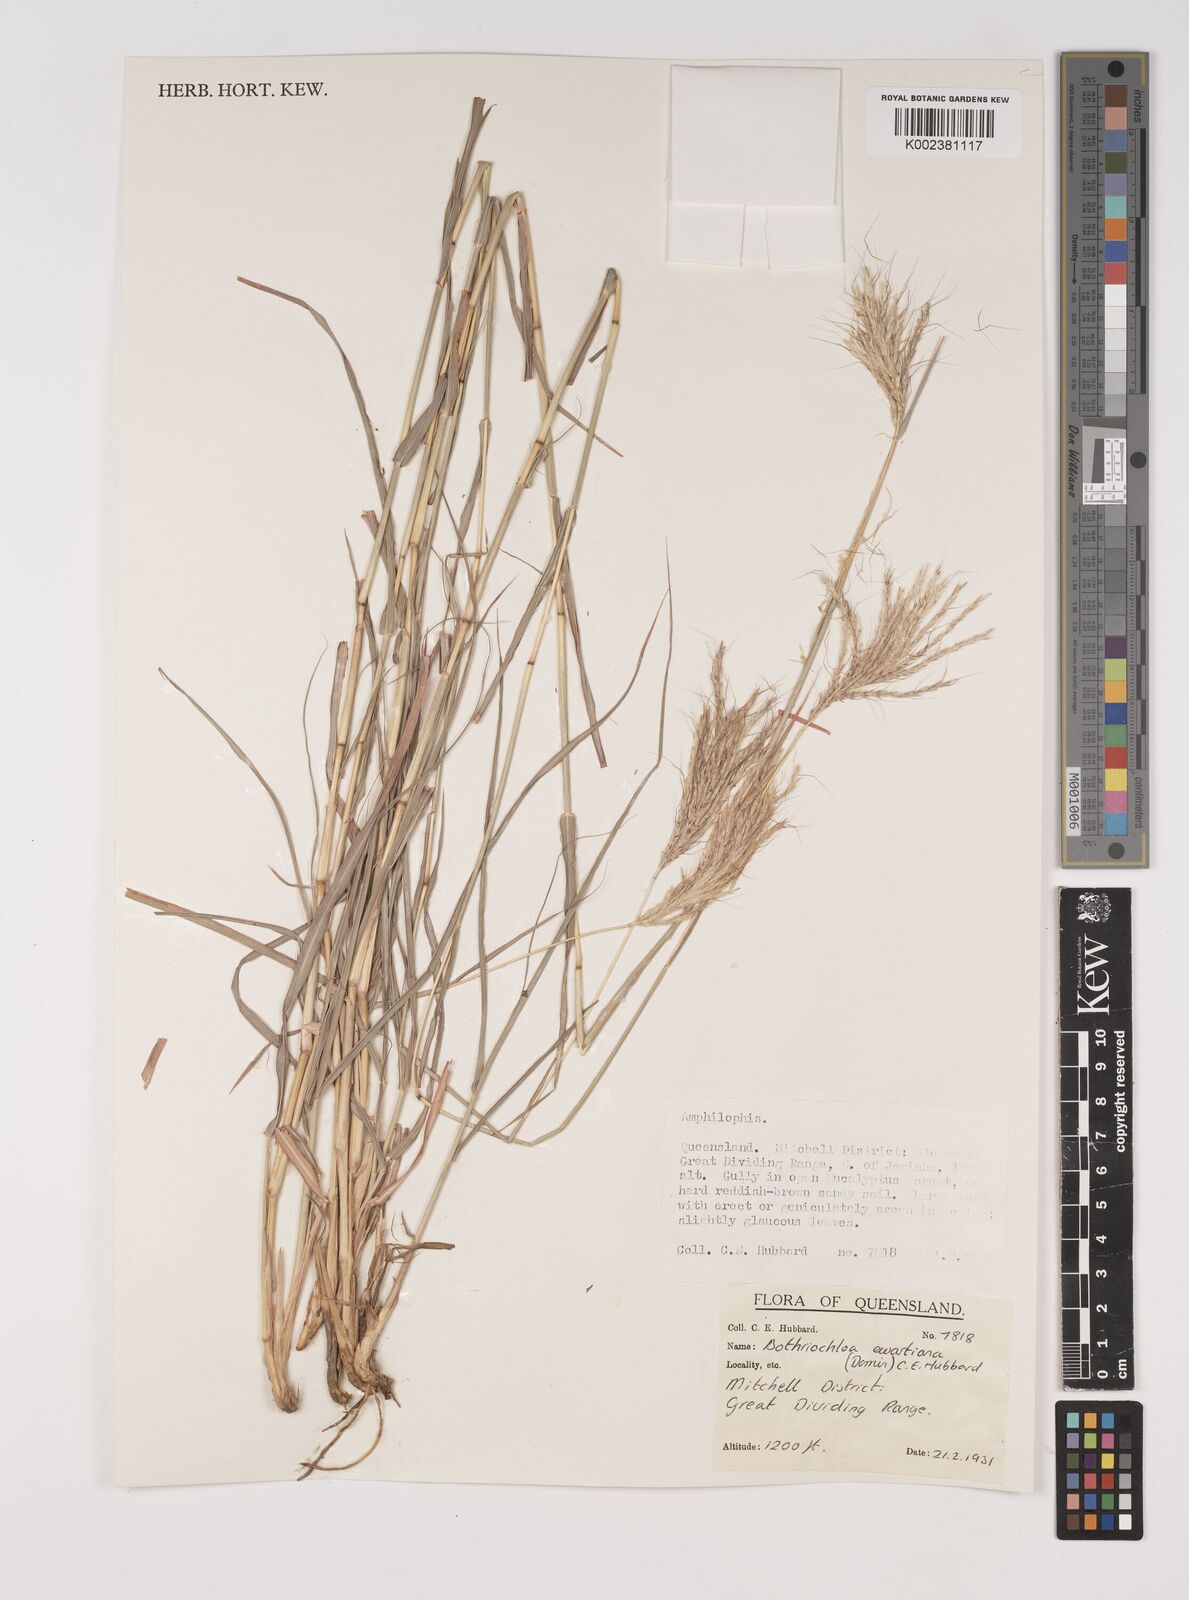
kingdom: Plantae
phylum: Tracheophyta
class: Liliopsida
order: Poales
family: Poaceae
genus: Bothriochloa
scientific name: Bothriochloa ewartiana
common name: Desert-bluegrass
